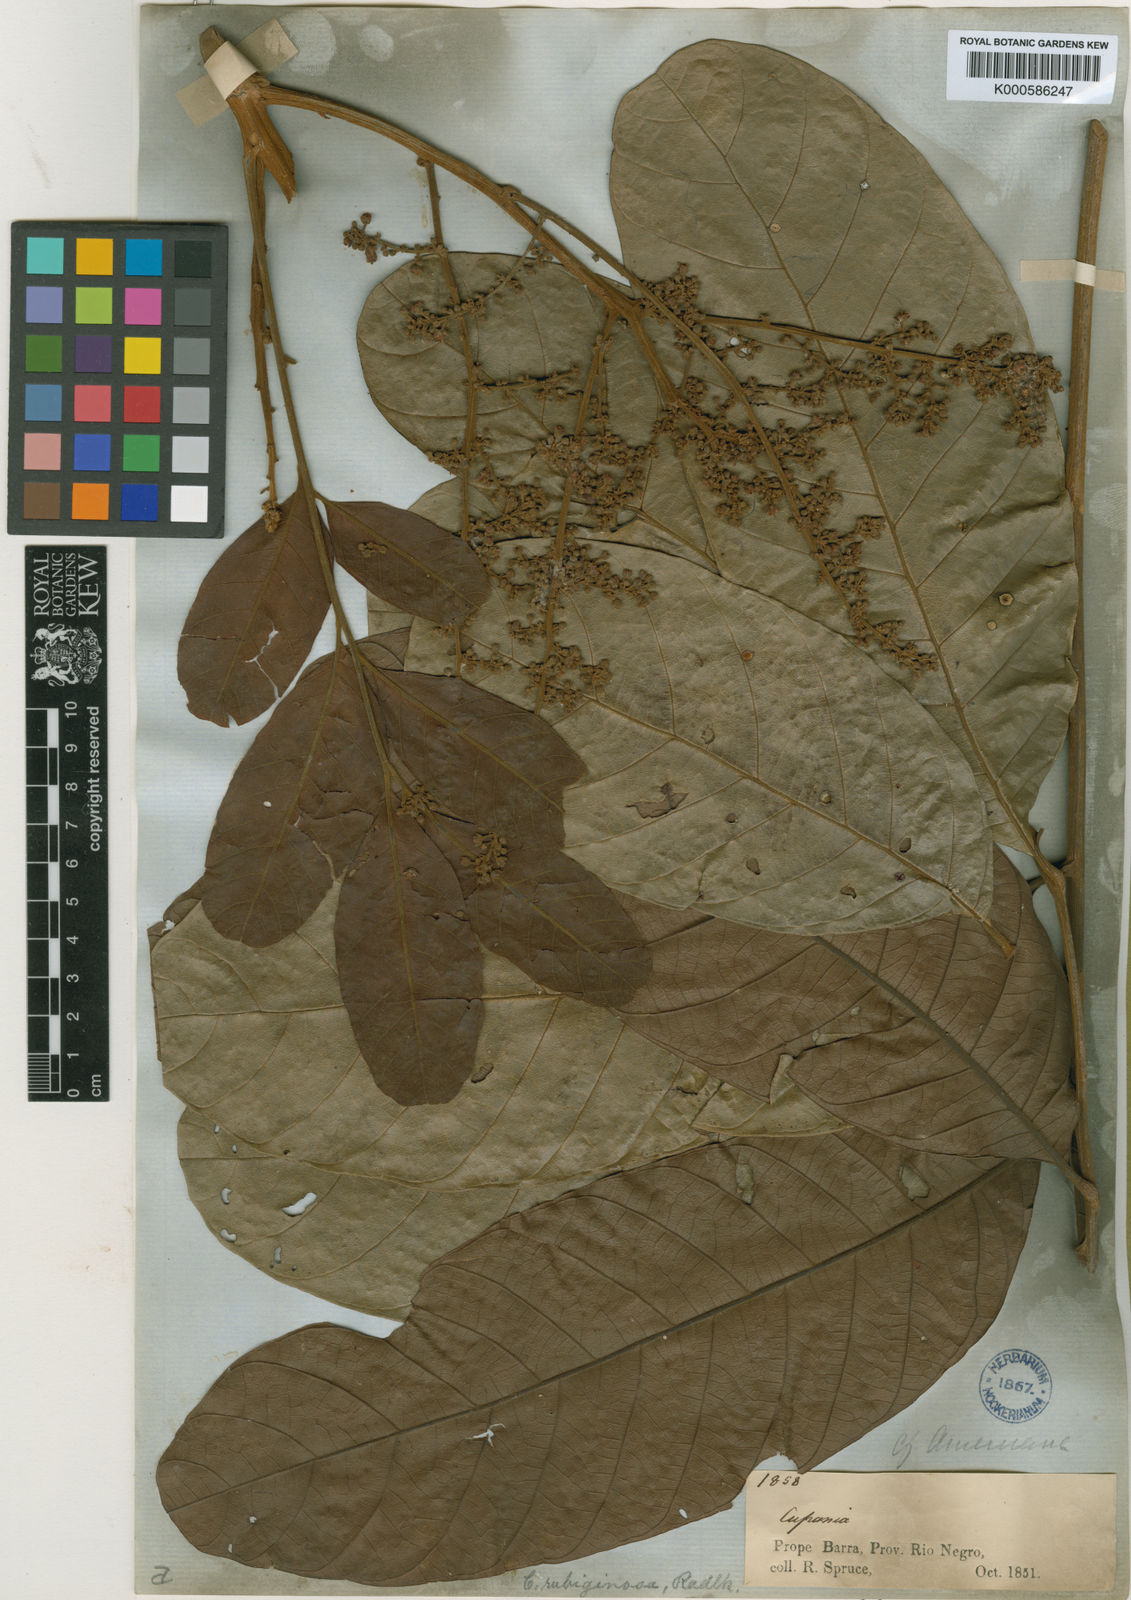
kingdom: Plantae
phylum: Tracheophyta
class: Magnoliopsida
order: Sapindales
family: Sapindaceae
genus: Cupania
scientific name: Cupania rubiginosa
